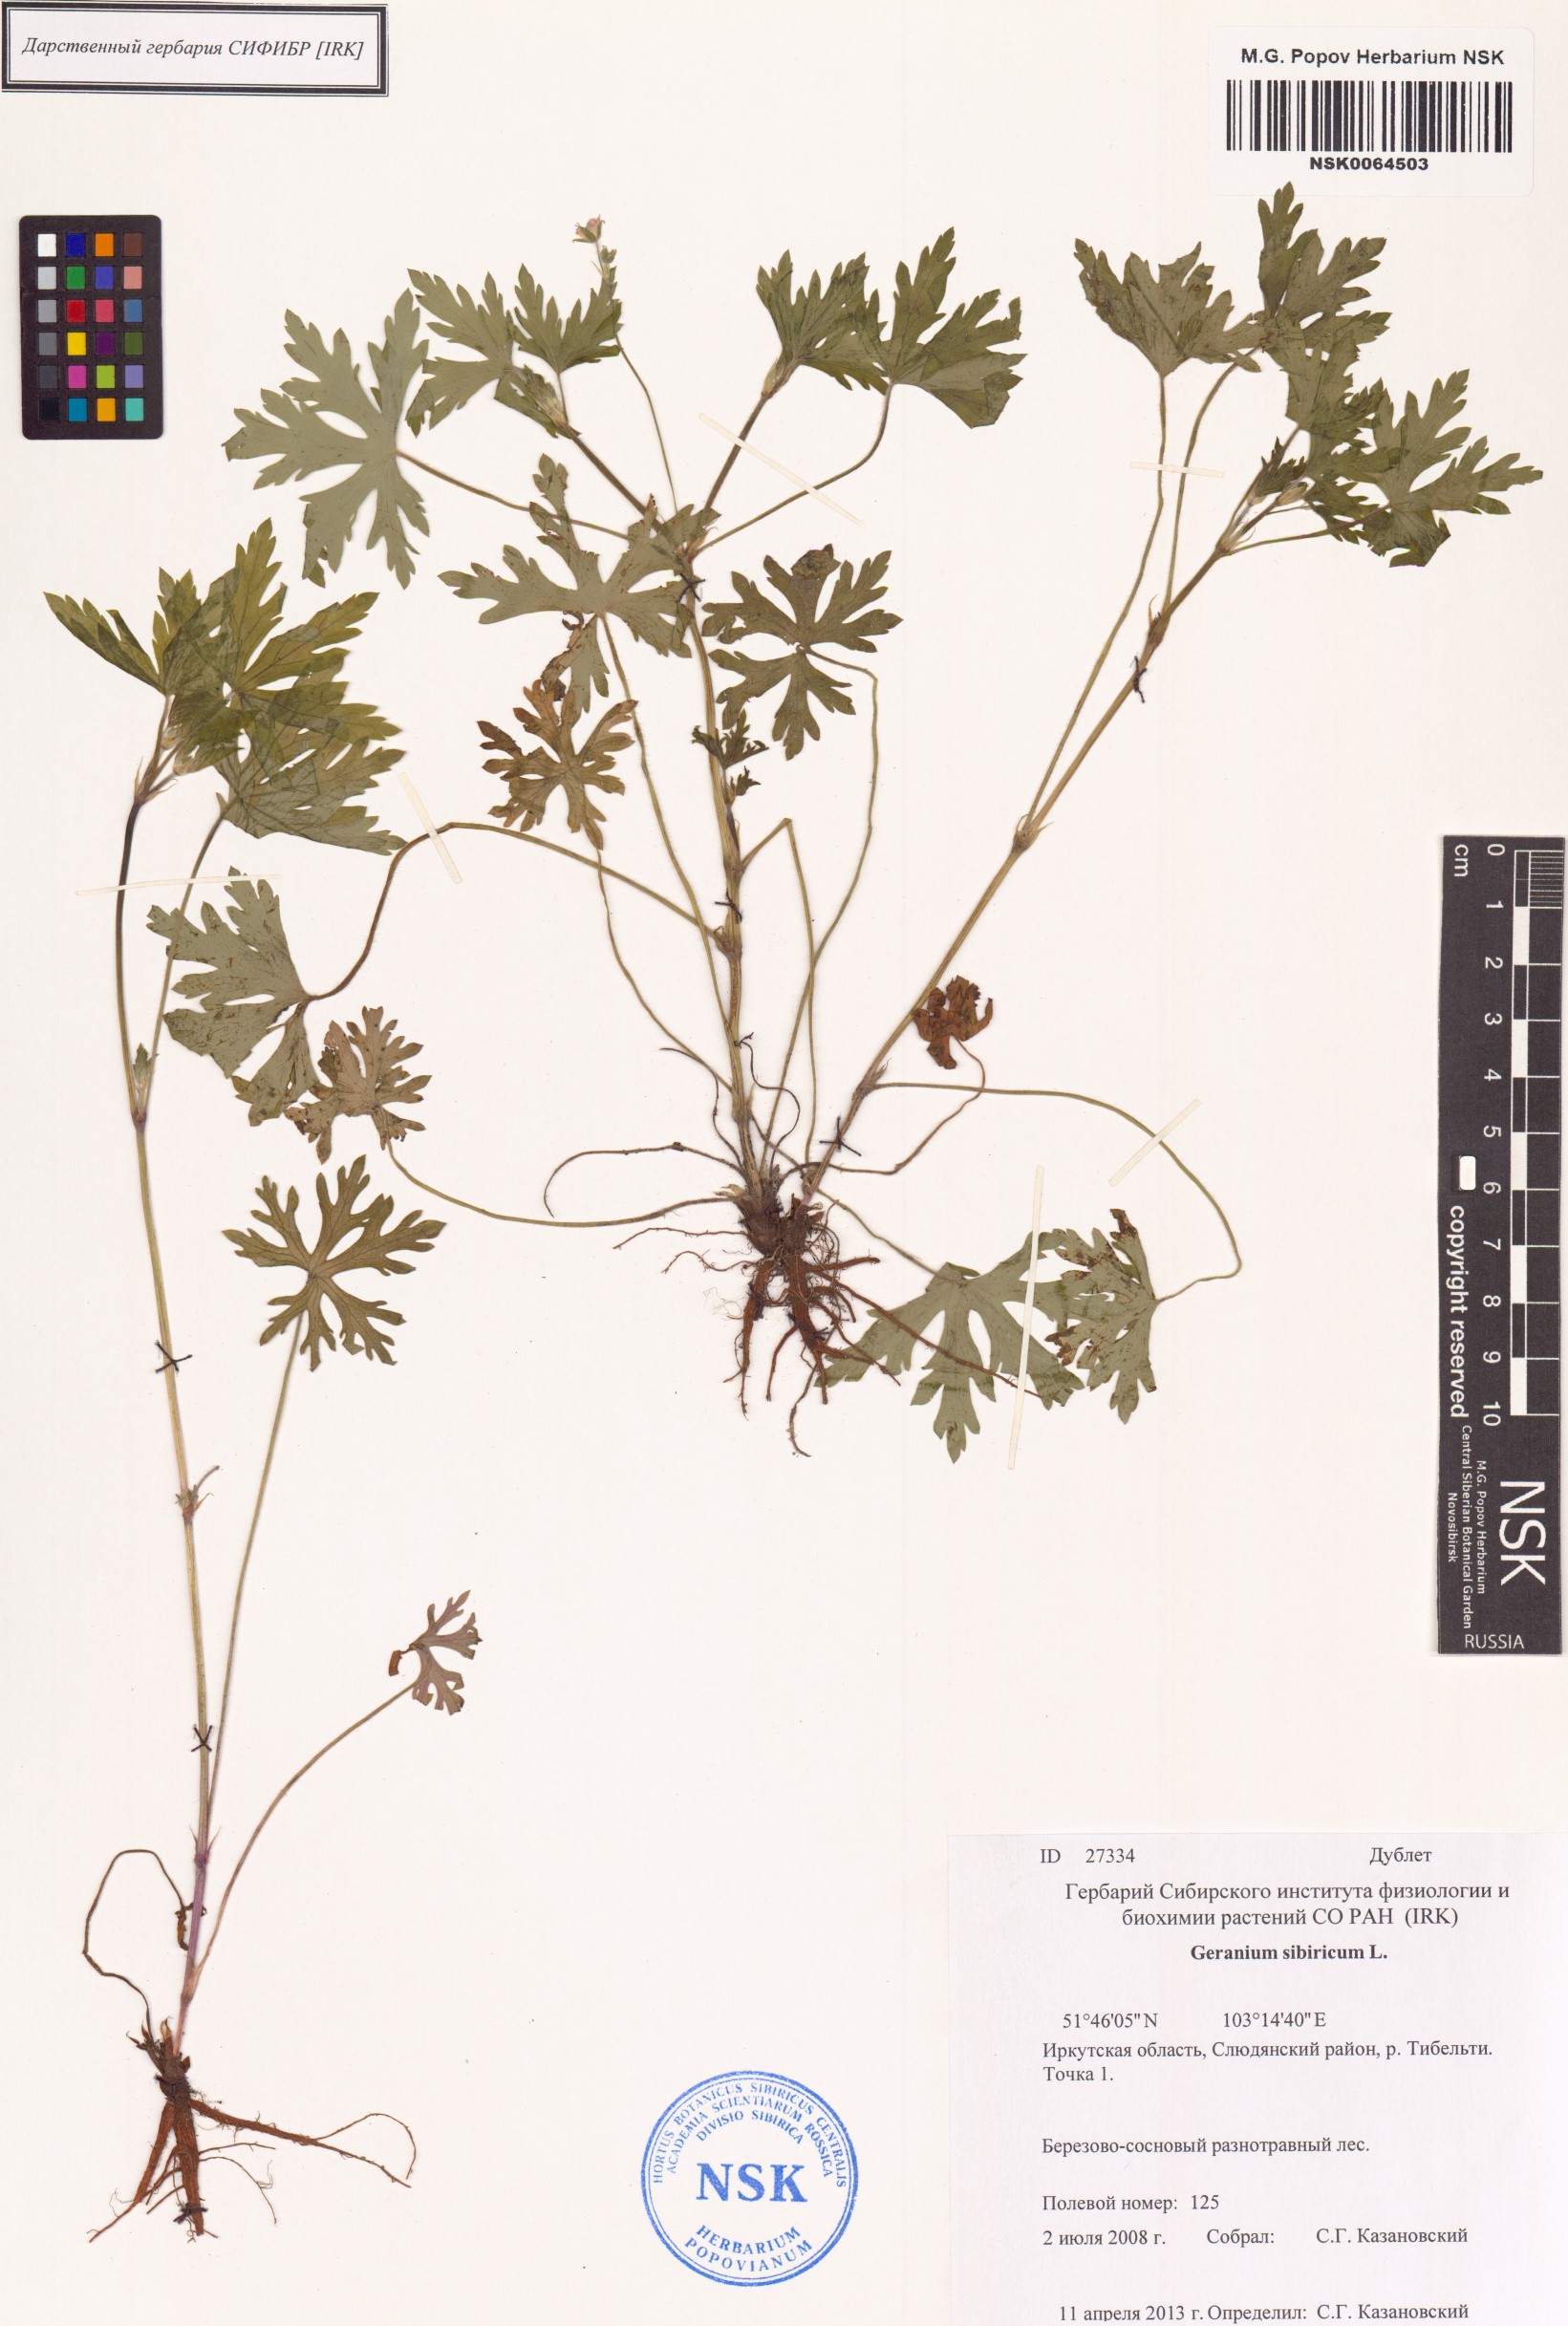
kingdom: Plantae
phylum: Tracheophyta
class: Magnoliopsida
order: Geraniales
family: Geraniaceae
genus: Geranium
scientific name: Geranium sibiricum
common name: Siberian crane's-bill
